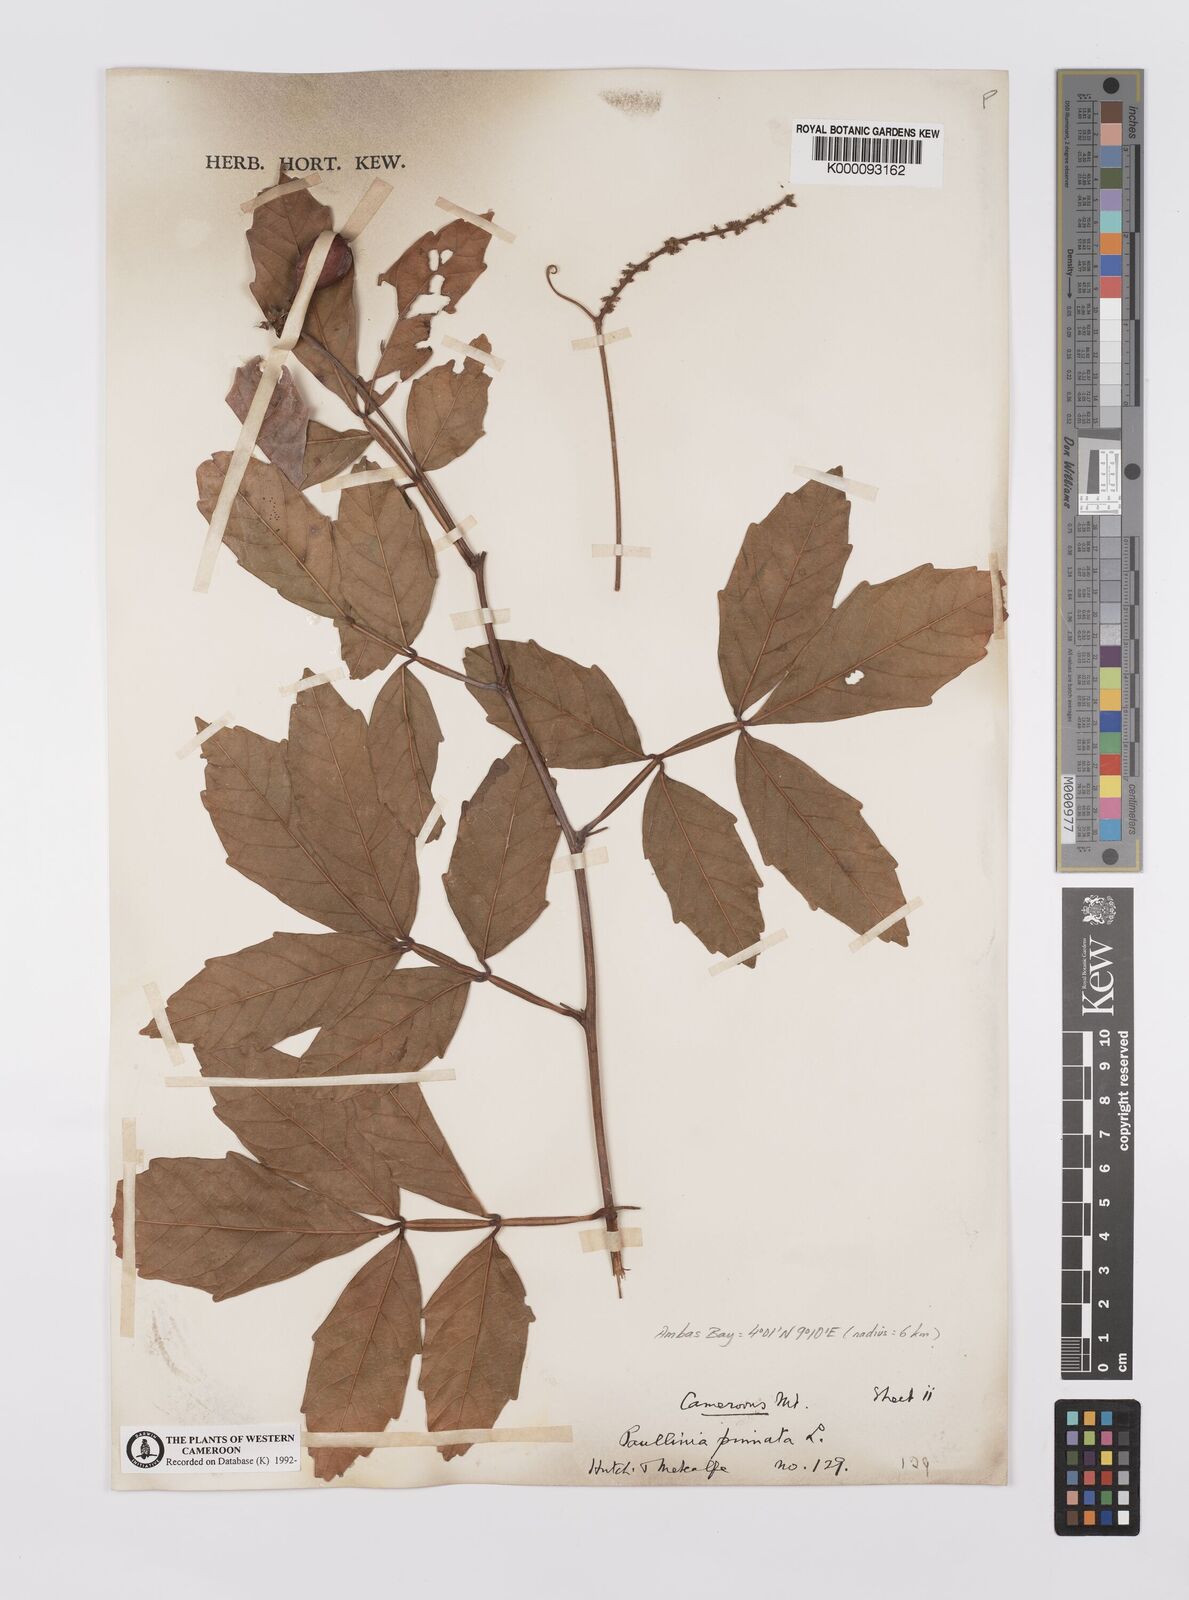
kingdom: Plantae
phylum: Tracheophyta
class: Magnoliopsida
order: Sapindales
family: Sapindaceae
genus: Paullinia
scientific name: Paullinia pinnata
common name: Barbasco
